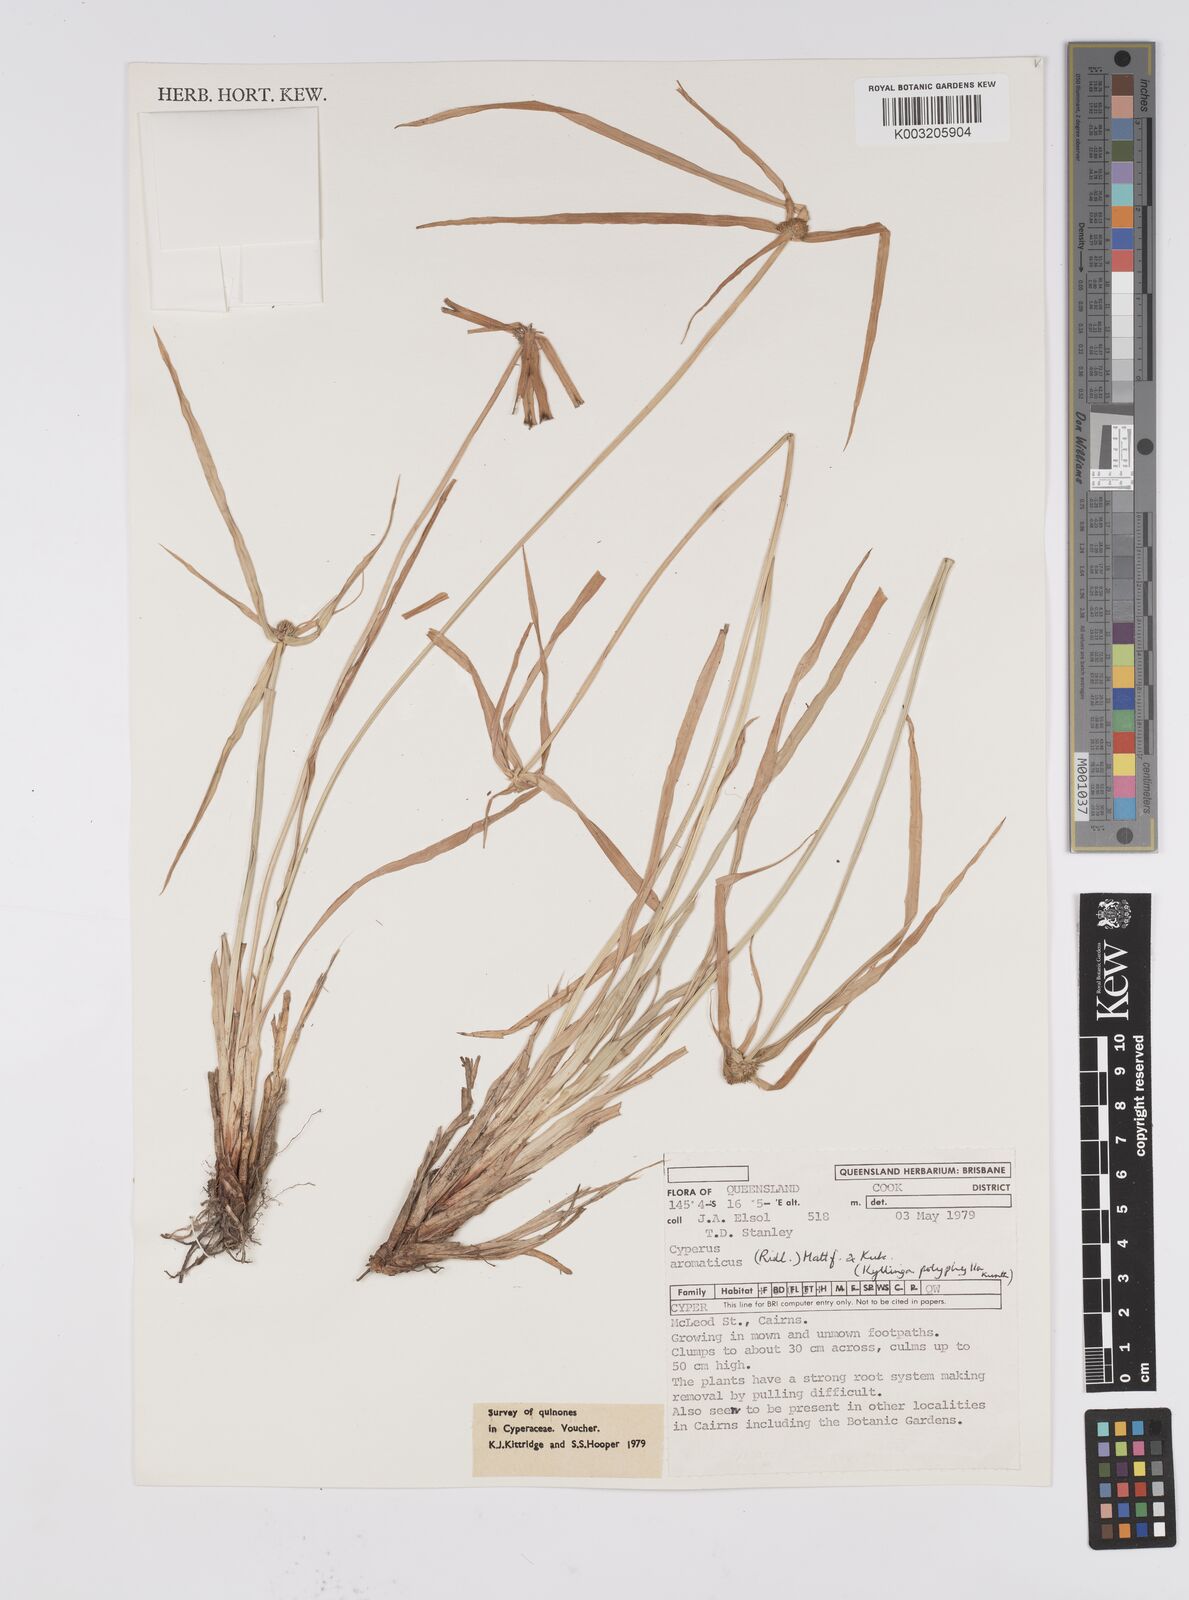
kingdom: Plantae
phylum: Tracheophyta
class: Liliopsida
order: Poales
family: Cyperaceae
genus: Cyperus
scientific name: Cyperus bulbosus
